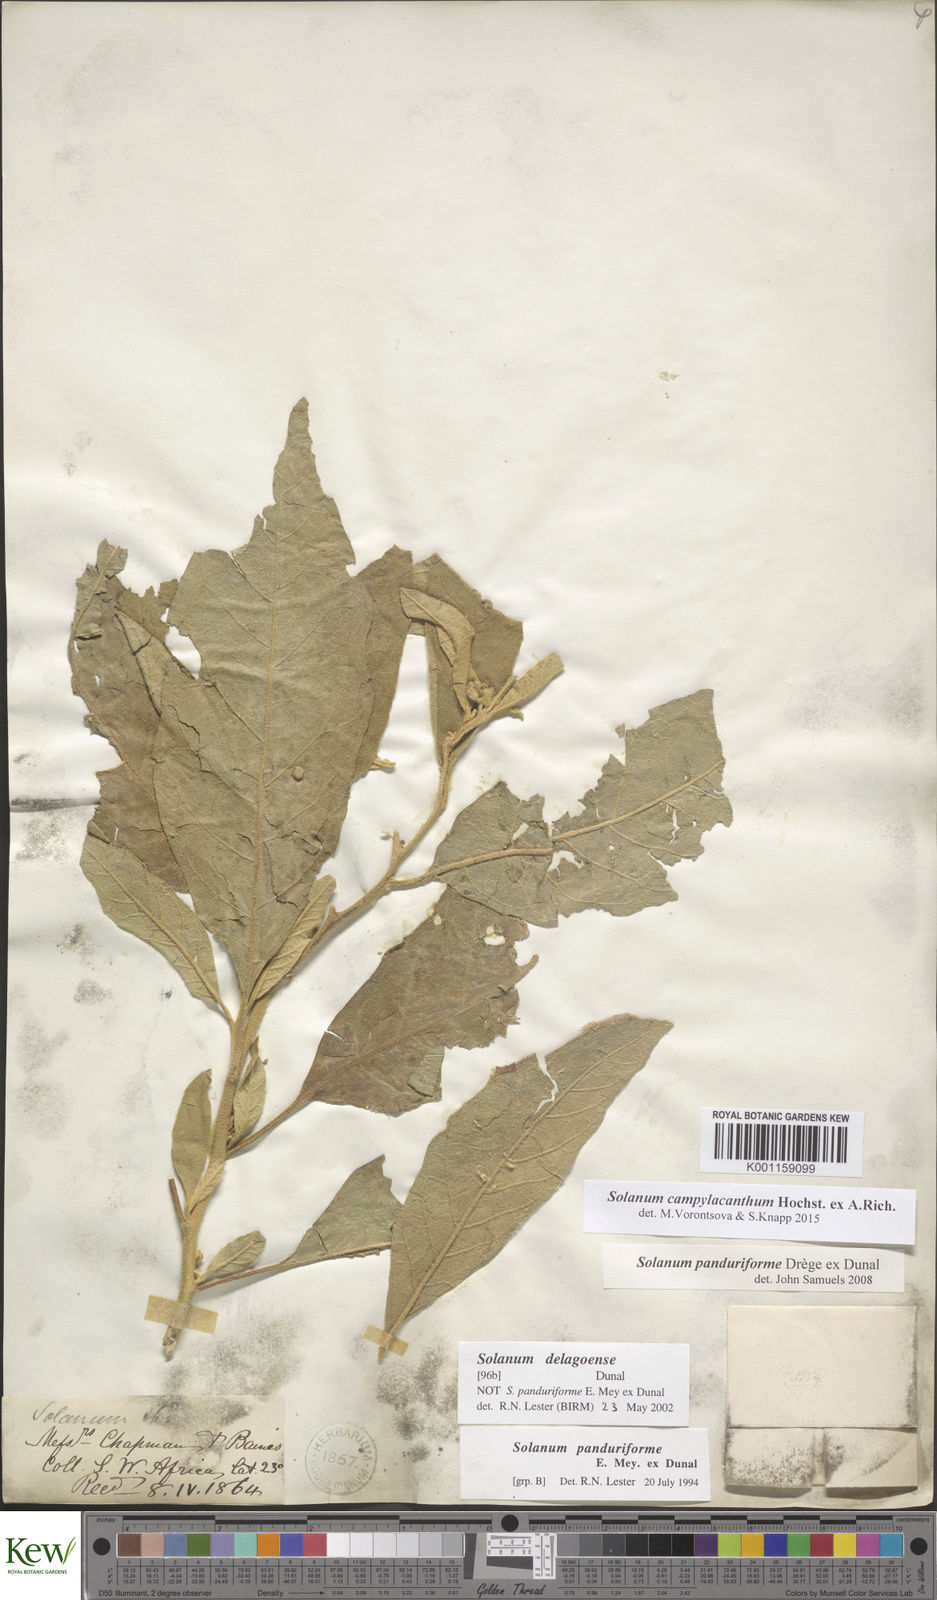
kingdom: Plantae
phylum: Tracheophyta
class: Magnoliopsida
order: Solanales
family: Solanaceae
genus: Solanum
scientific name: Solanum campylacanthum
